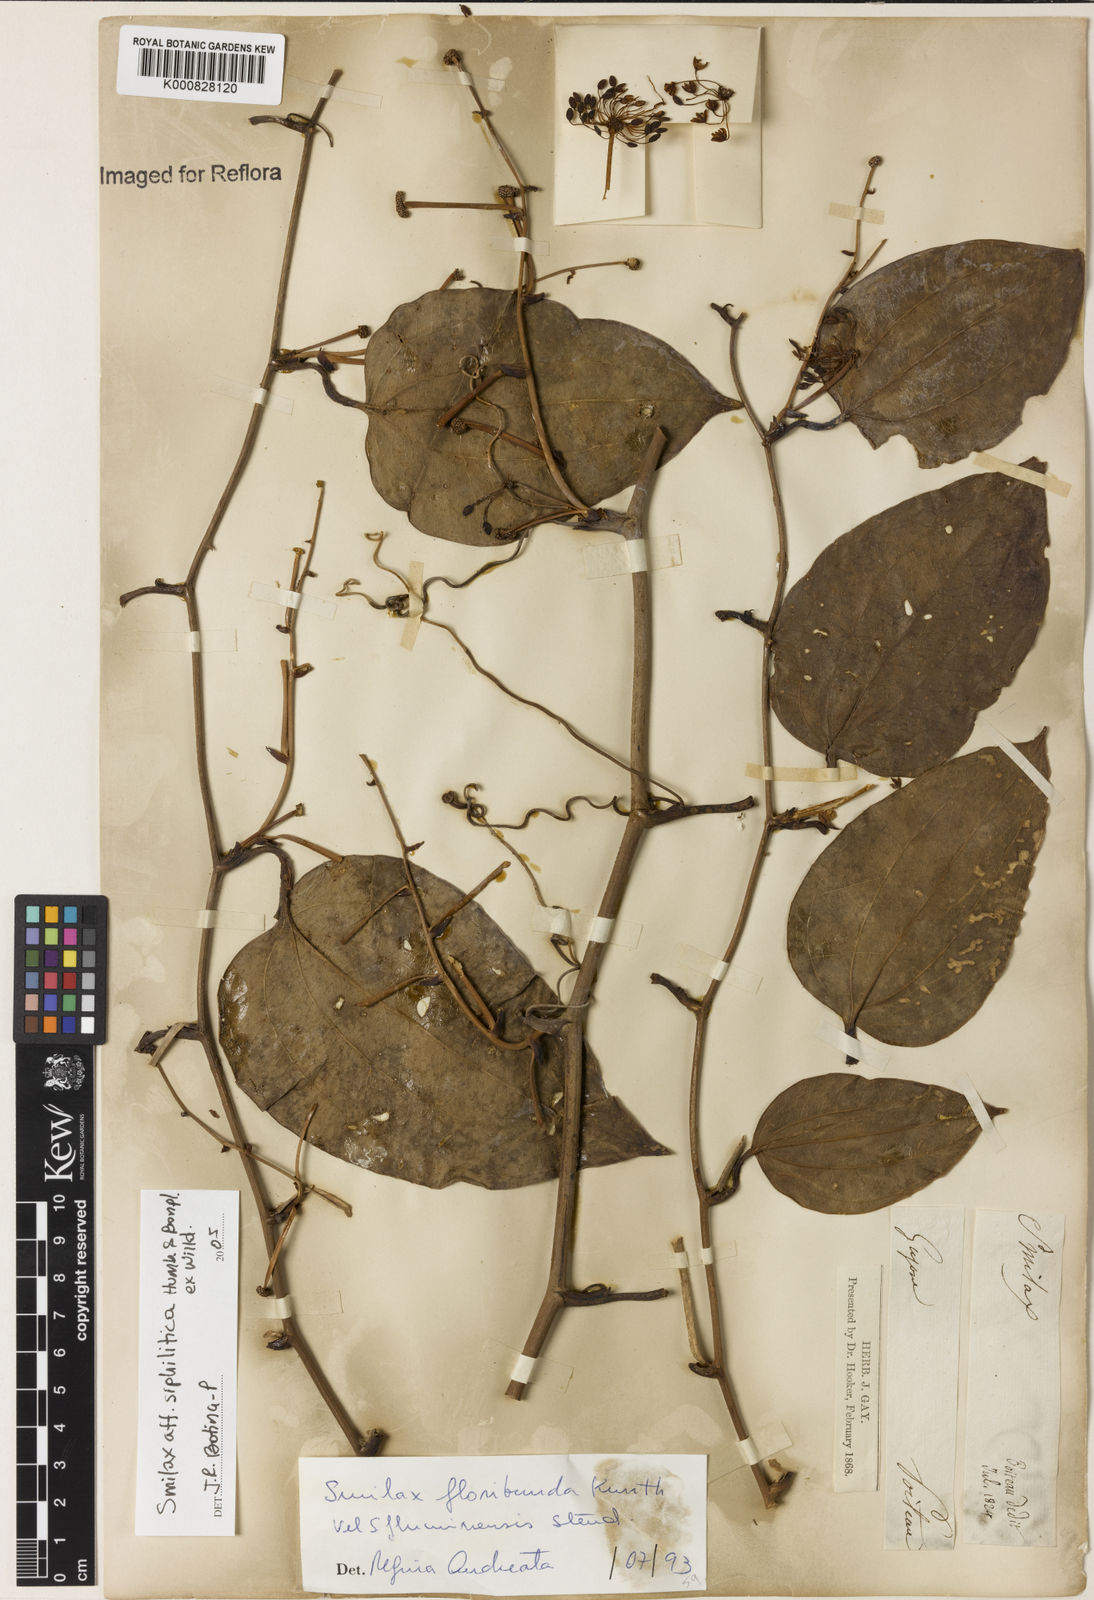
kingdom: Plantae
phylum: Tracheophyta
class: Liliopsida
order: Liliales
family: Smilacaceae
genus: Smilax
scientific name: Smilax domingensis
